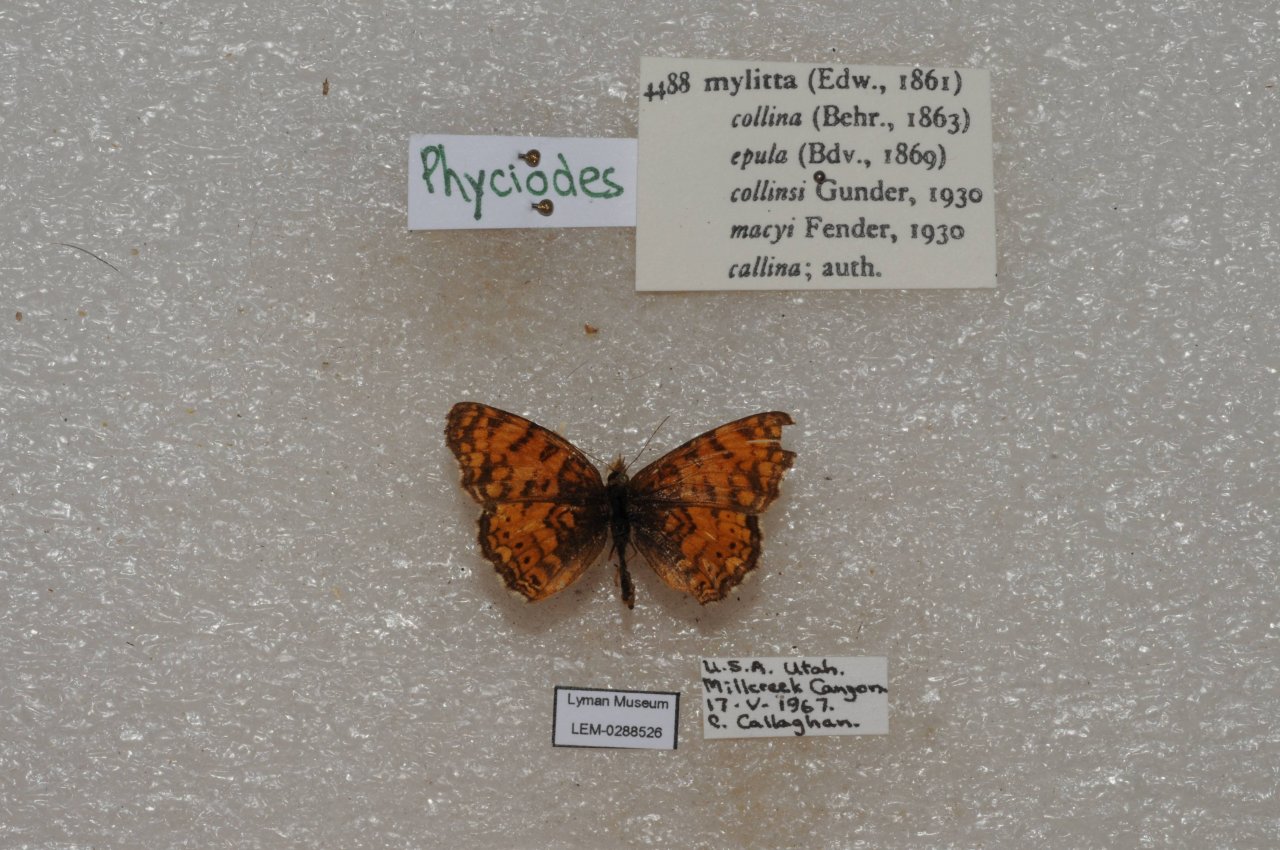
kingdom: Animalia
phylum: Arthropoda
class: Insecta
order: Lepidoptera
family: Nymphalidae
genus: Eresia
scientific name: Eresia aveyrona
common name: Mylitta Crescent
